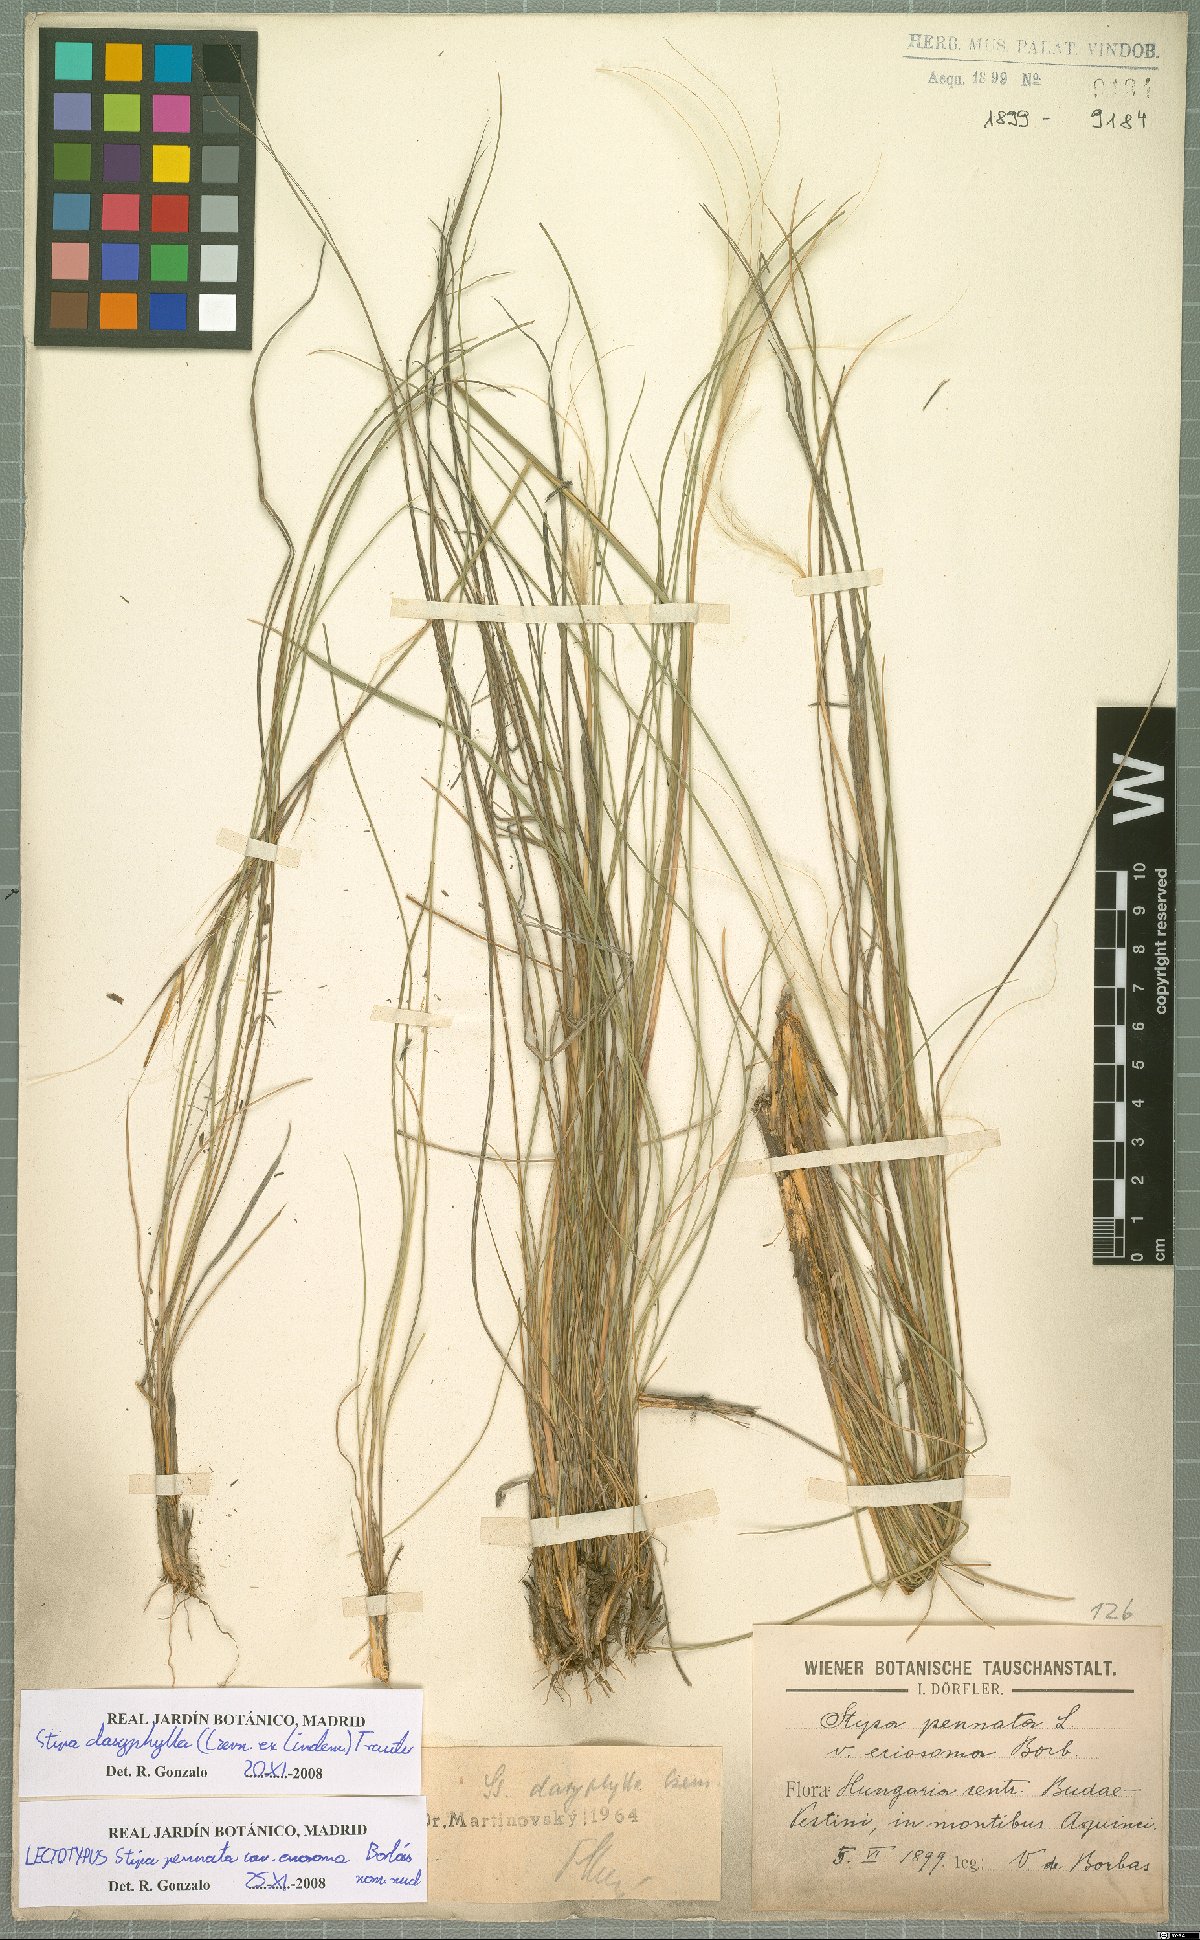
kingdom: Plantae
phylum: Tracheophyta
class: Liliopsida
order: Poales
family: Poaceae
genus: Stipa
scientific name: Stipa dasyphylla
